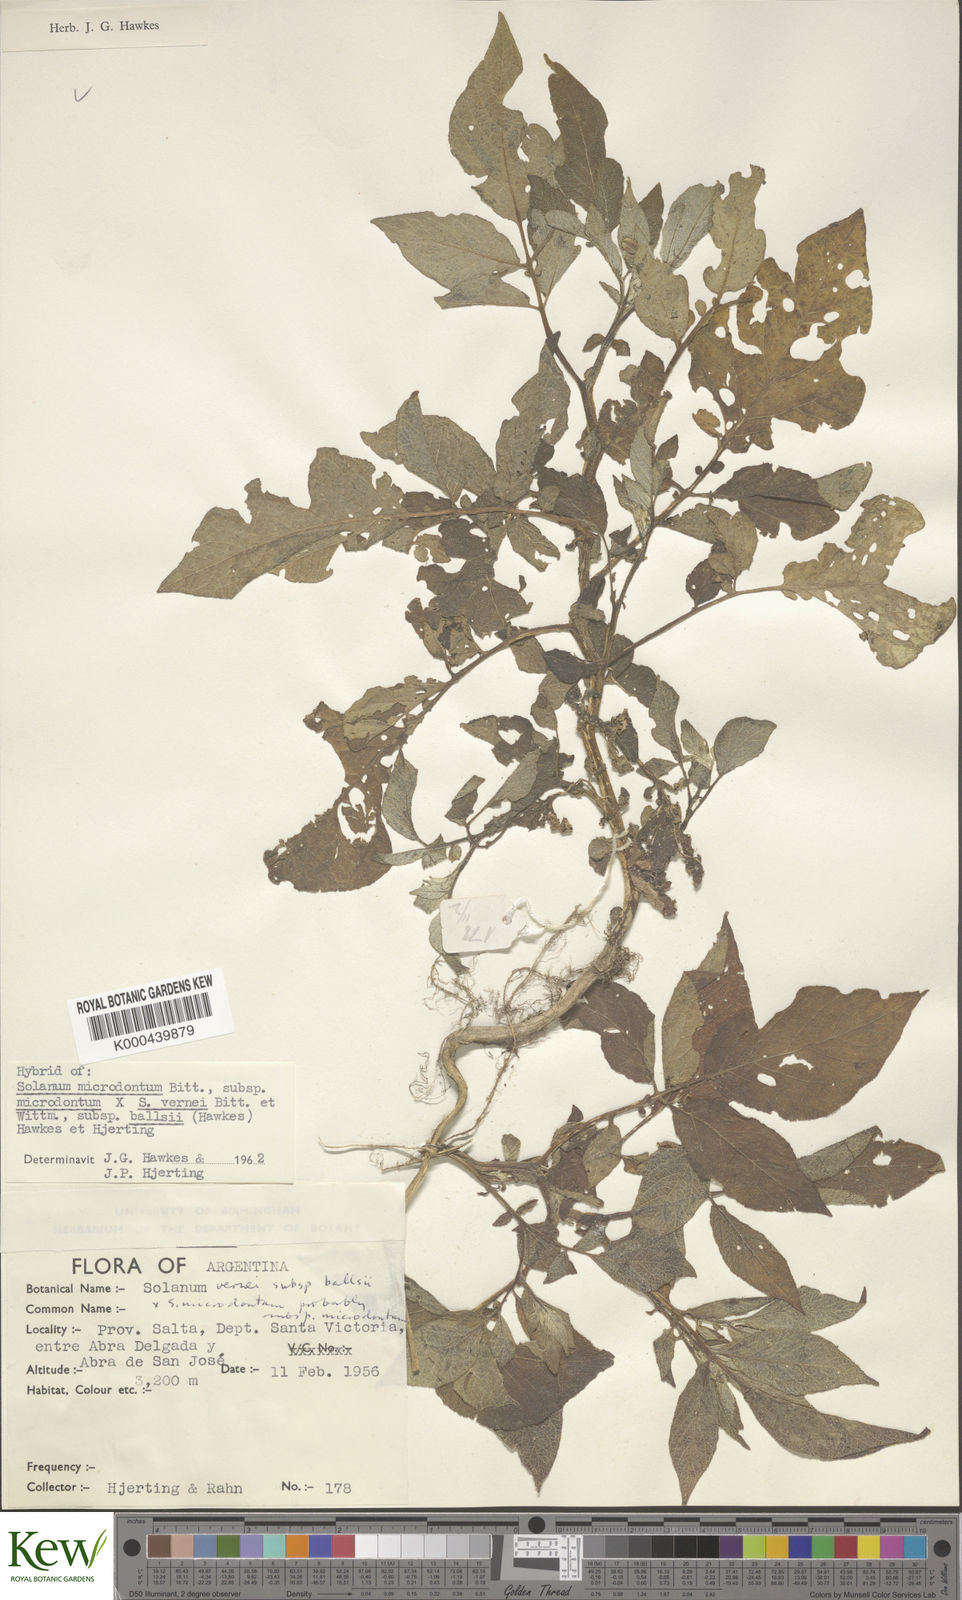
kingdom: Plantae
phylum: Tracheophyta
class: Magnoliopsida
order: Solanales
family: Solanaceae
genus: Solanum
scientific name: Solanum microdontum
